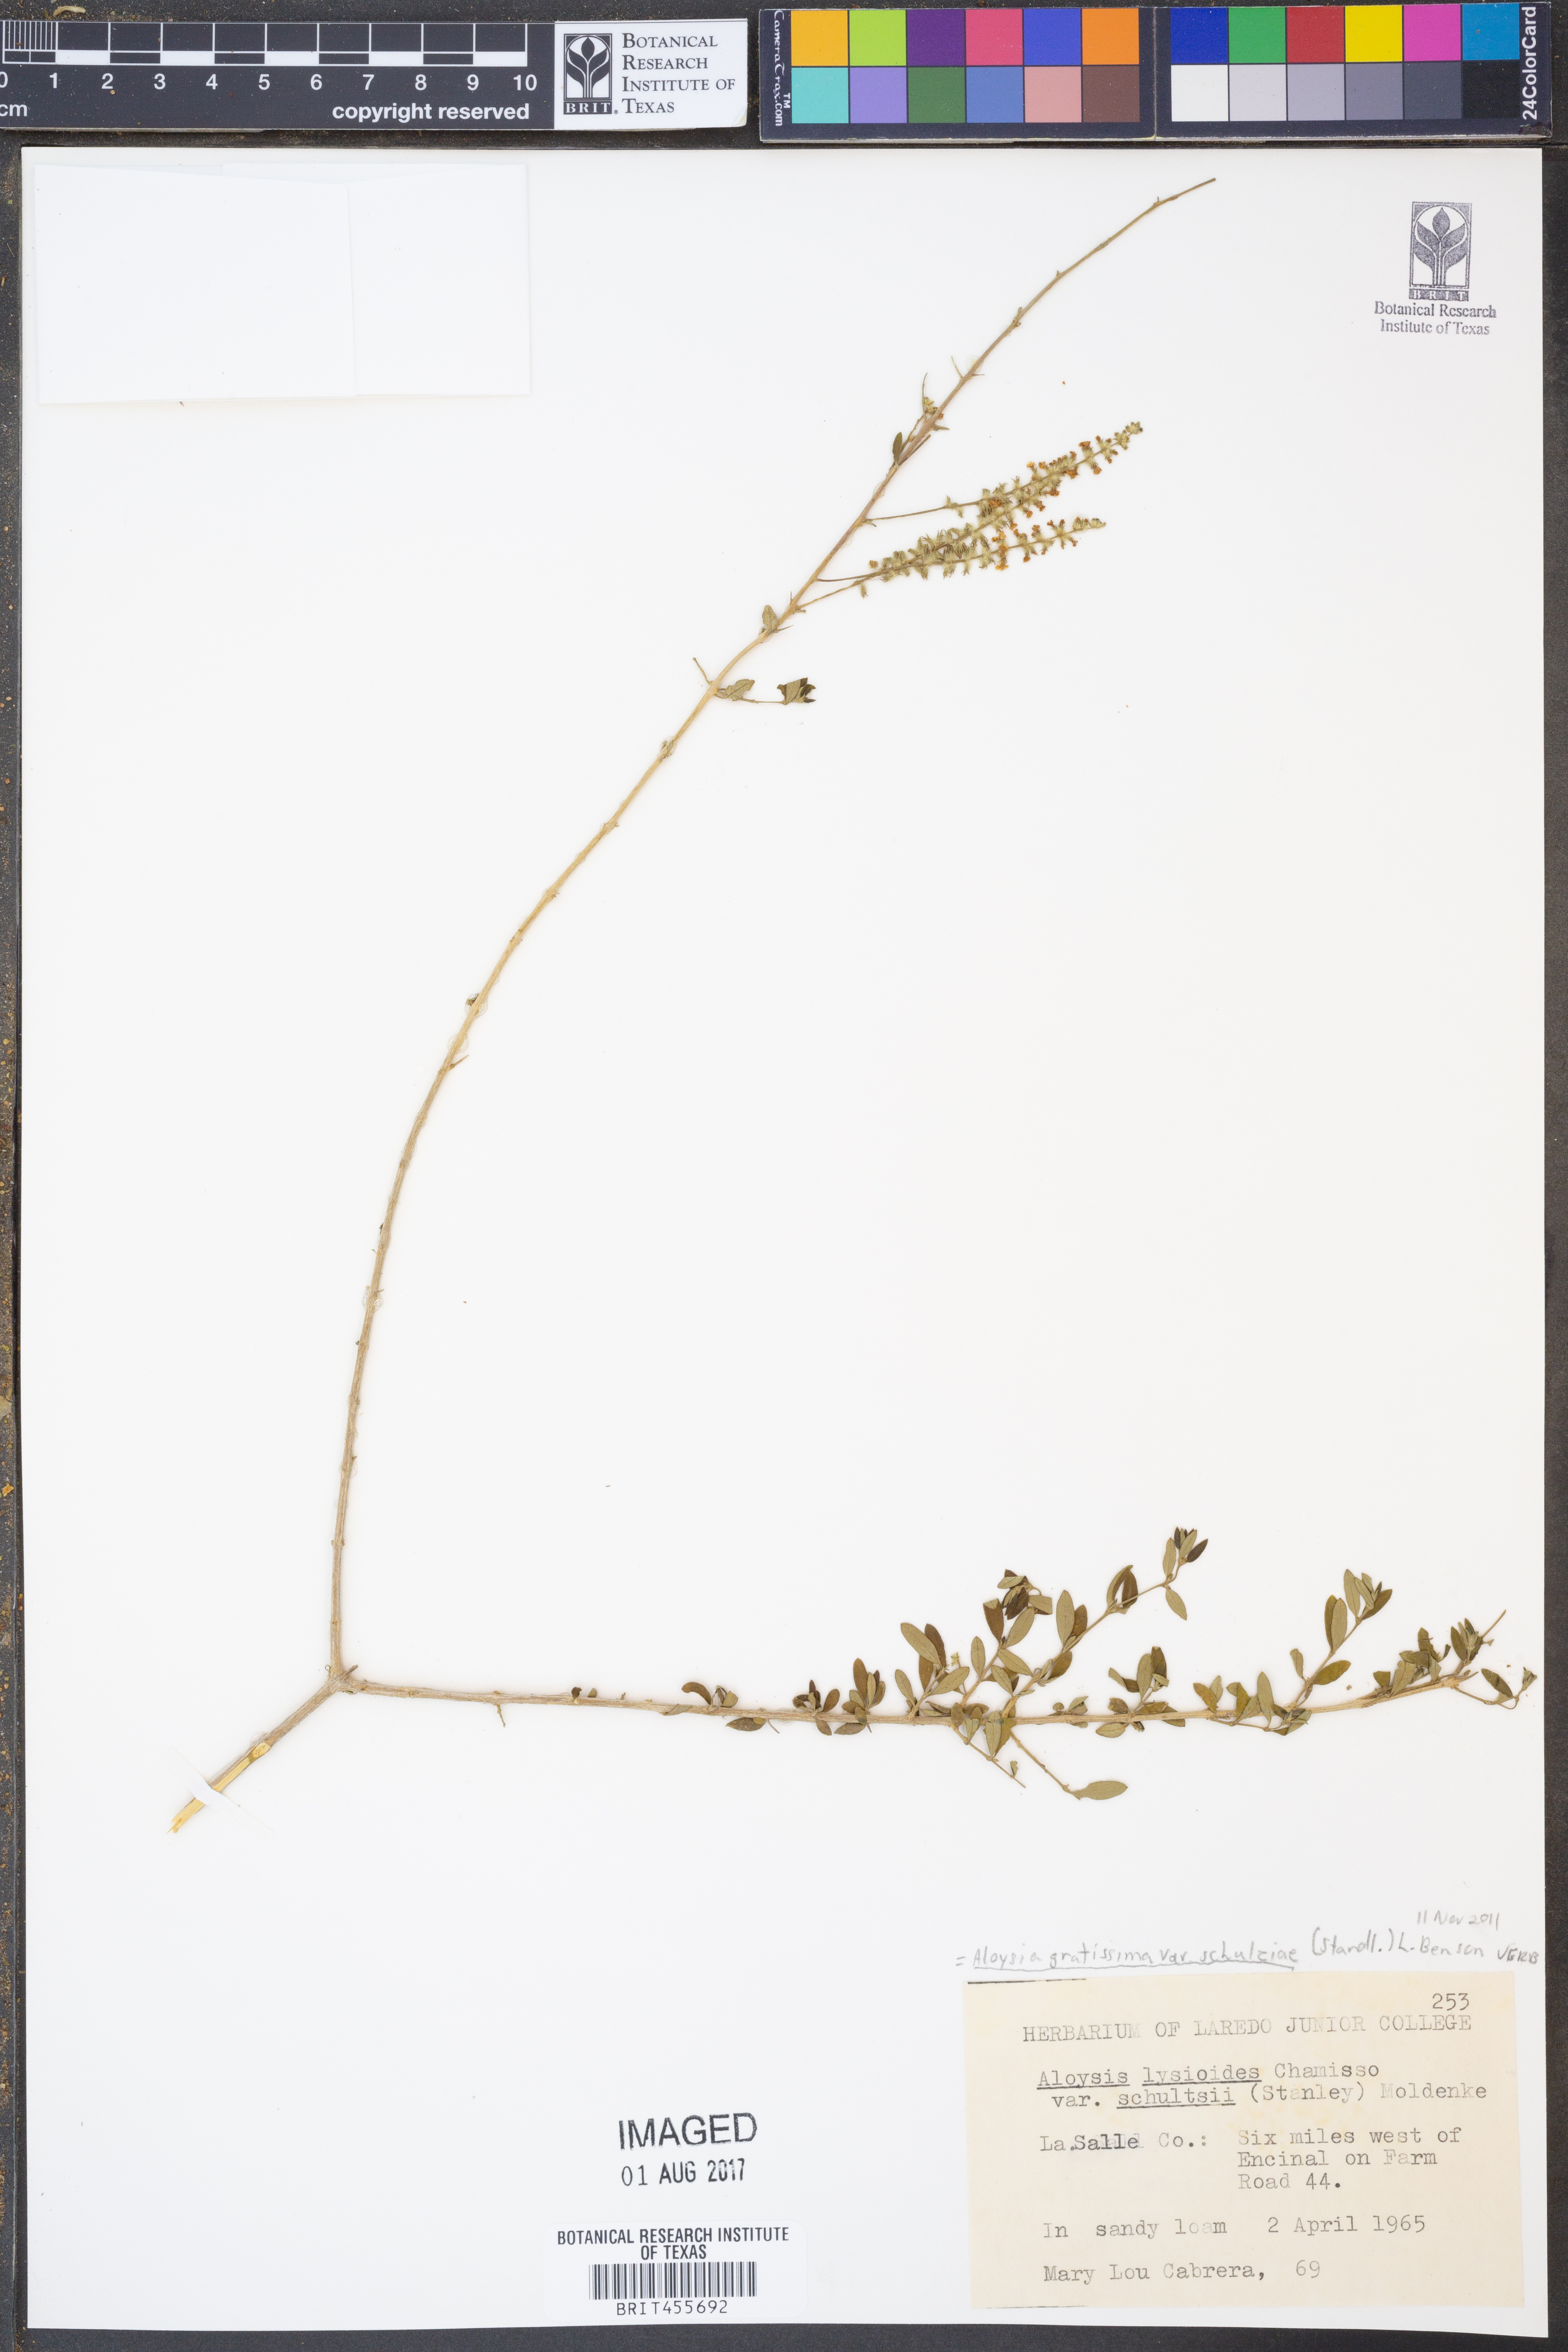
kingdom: Plantae
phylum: Tracheophyta
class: Magnoliopsida
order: Lamiales
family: Verbenaceae
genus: Aloysia
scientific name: Aloysia gratissima
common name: Common bee-brush
